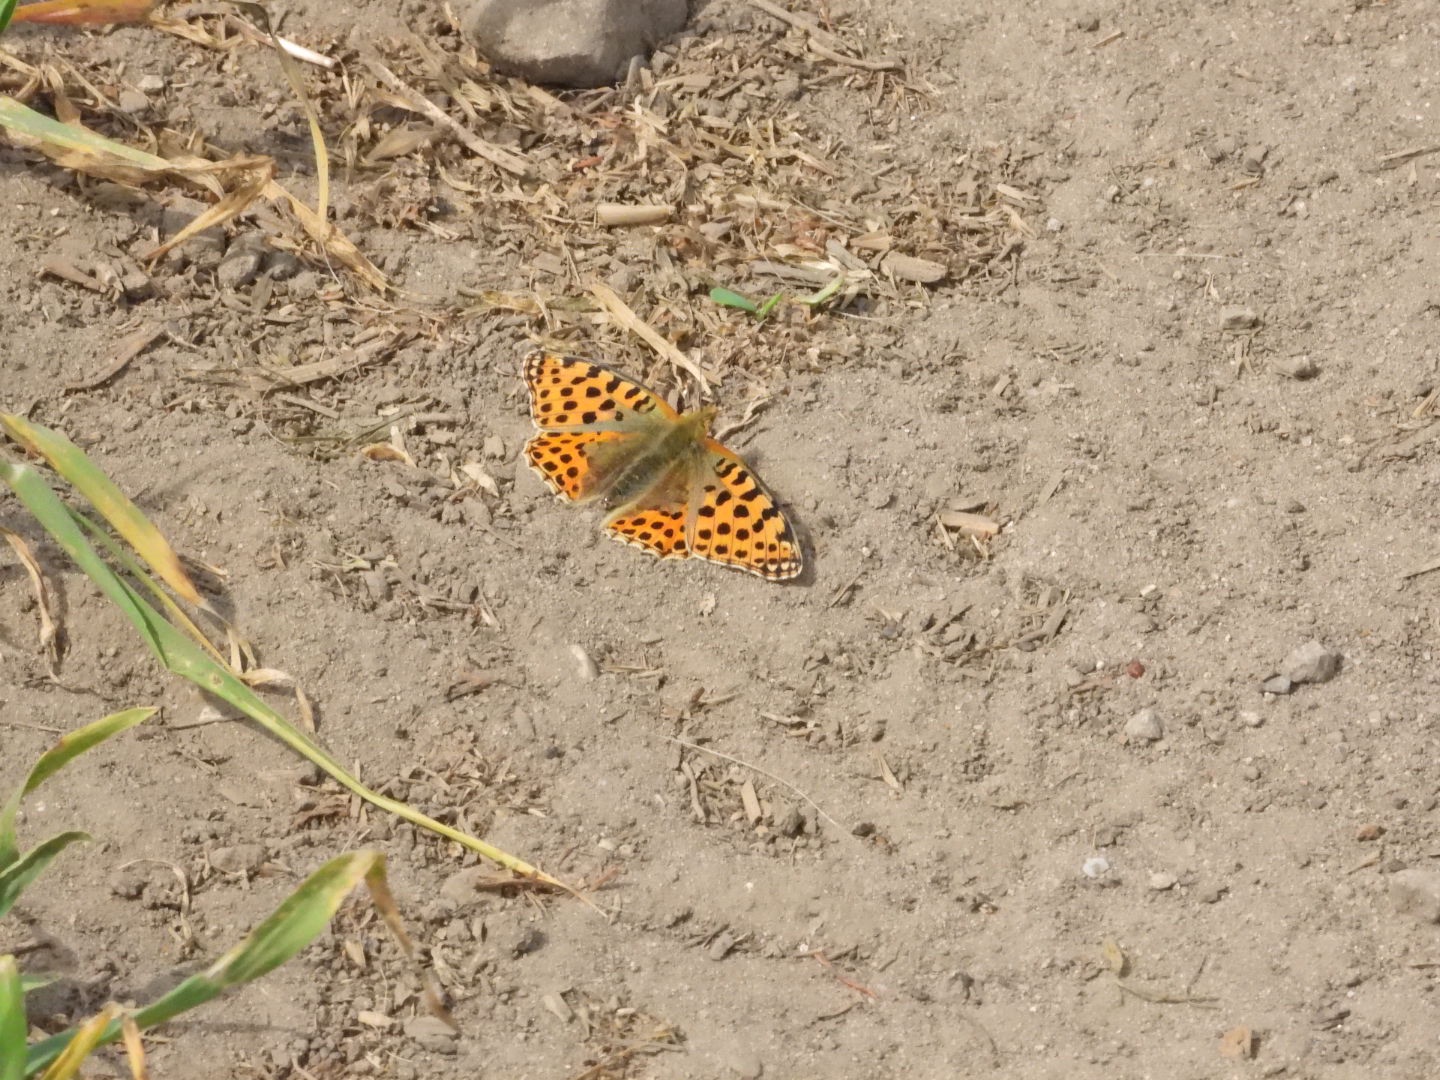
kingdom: Animalia
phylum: Arthropoda
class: Insecta
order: Lepidoptera
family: Nymphalidae
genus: Issoria
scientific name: Issoria lathonia
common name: Storplettet perlemorsommerfugl
